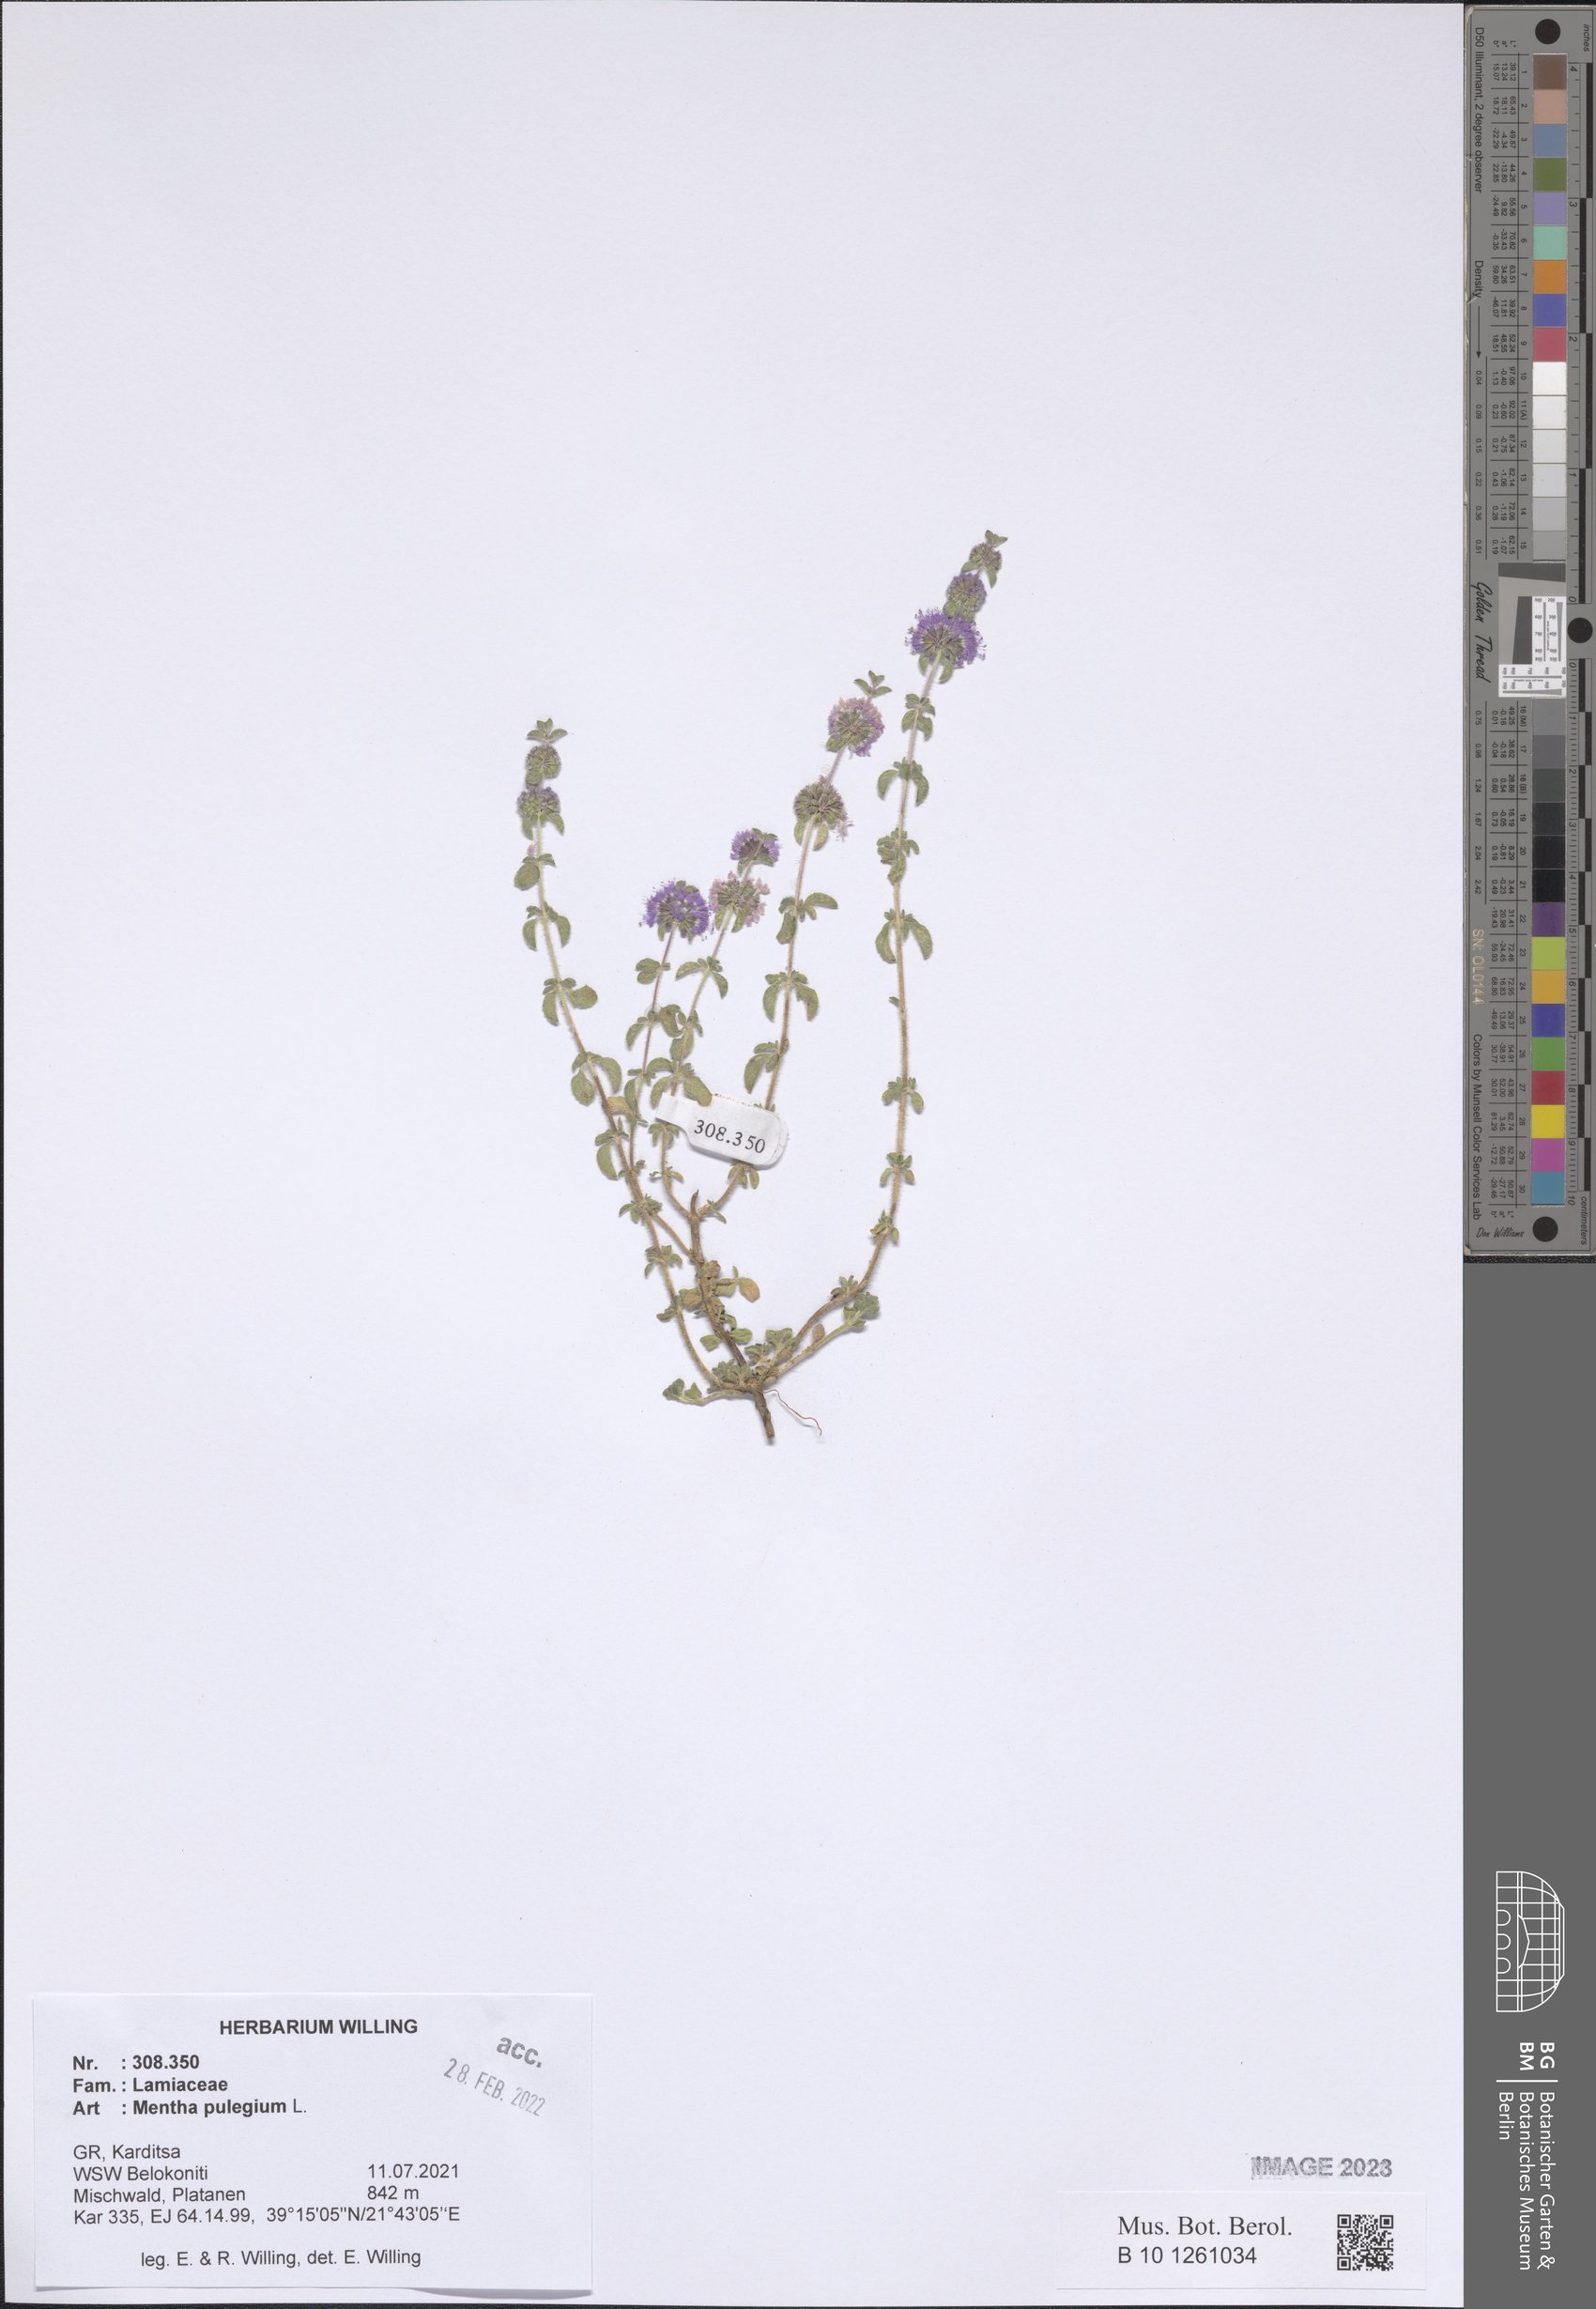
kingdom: Plantae
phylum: Tracheophyta
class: Magnoliopsida
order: Lamiales
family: Lamiaceae
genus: Mentha
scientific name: Mentha pulegium
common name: Pennyroyal
